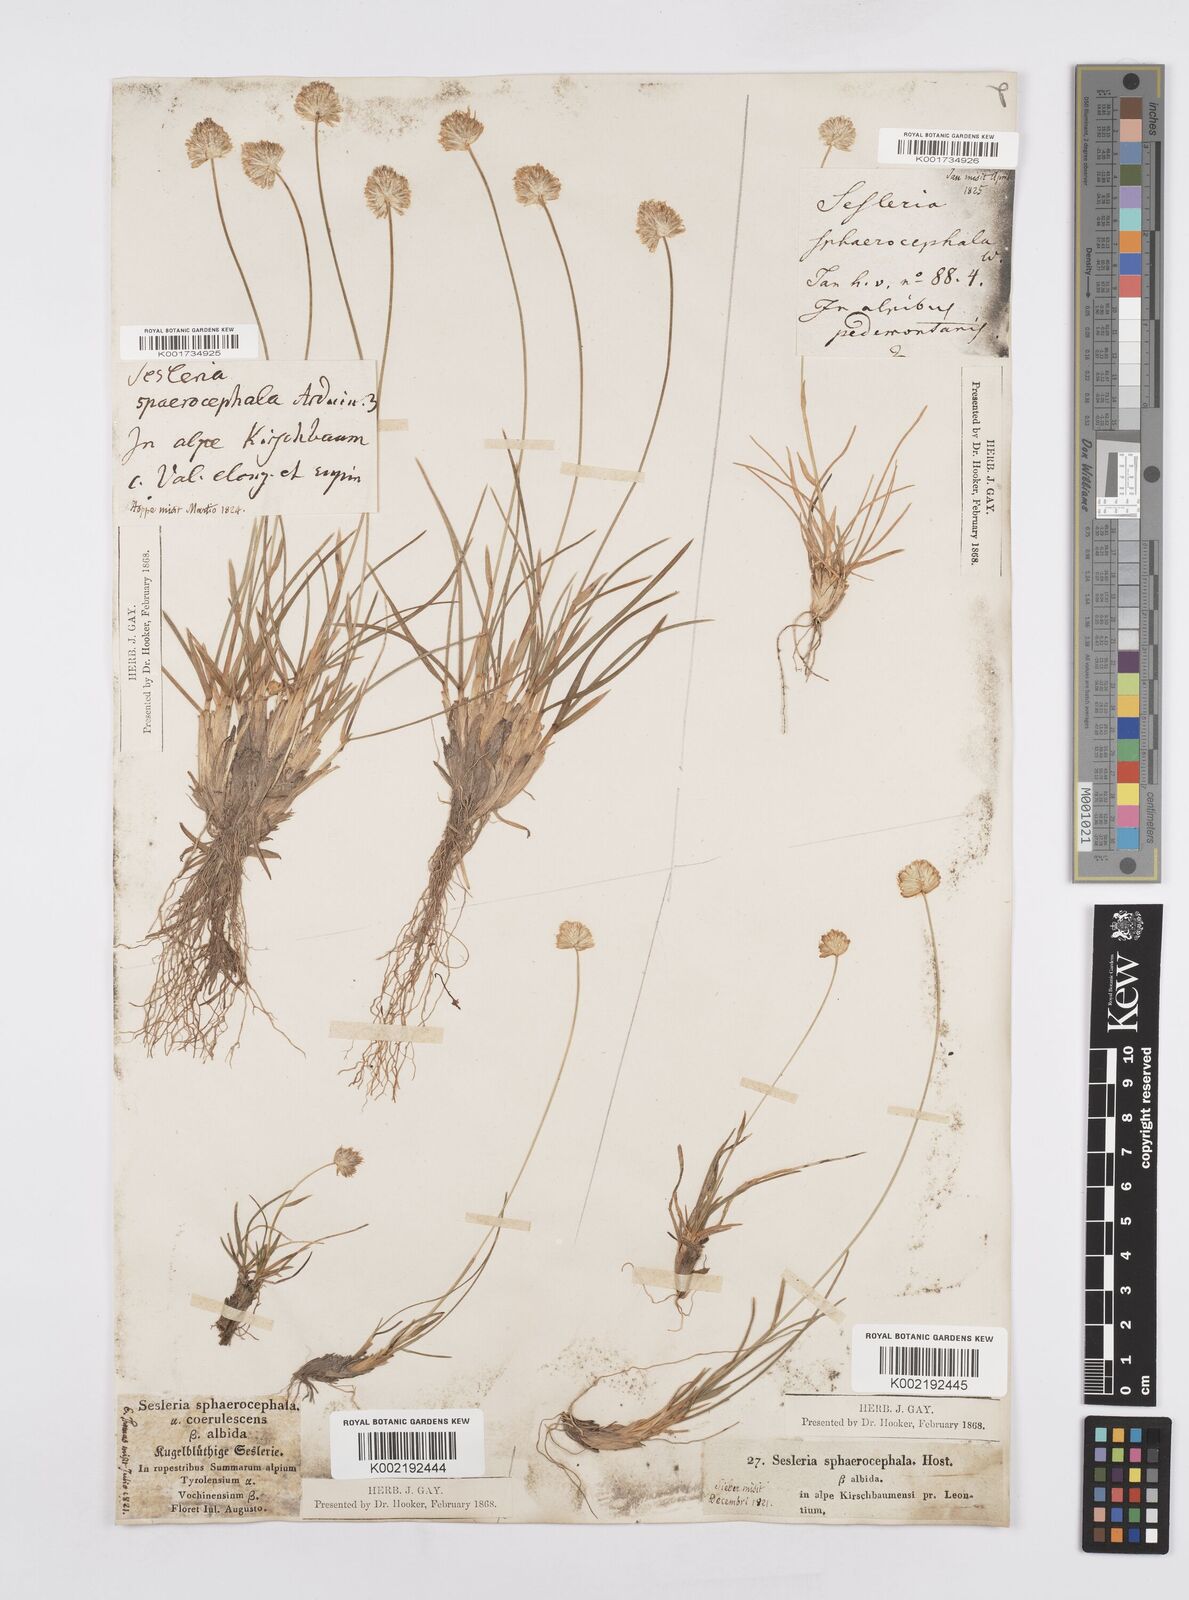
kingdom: Plantae
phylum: Tracheophyta
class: Liliopsida
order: Poales
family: Poaceae
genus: Sesleriella
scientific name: Sesleriella sphaerocephala
